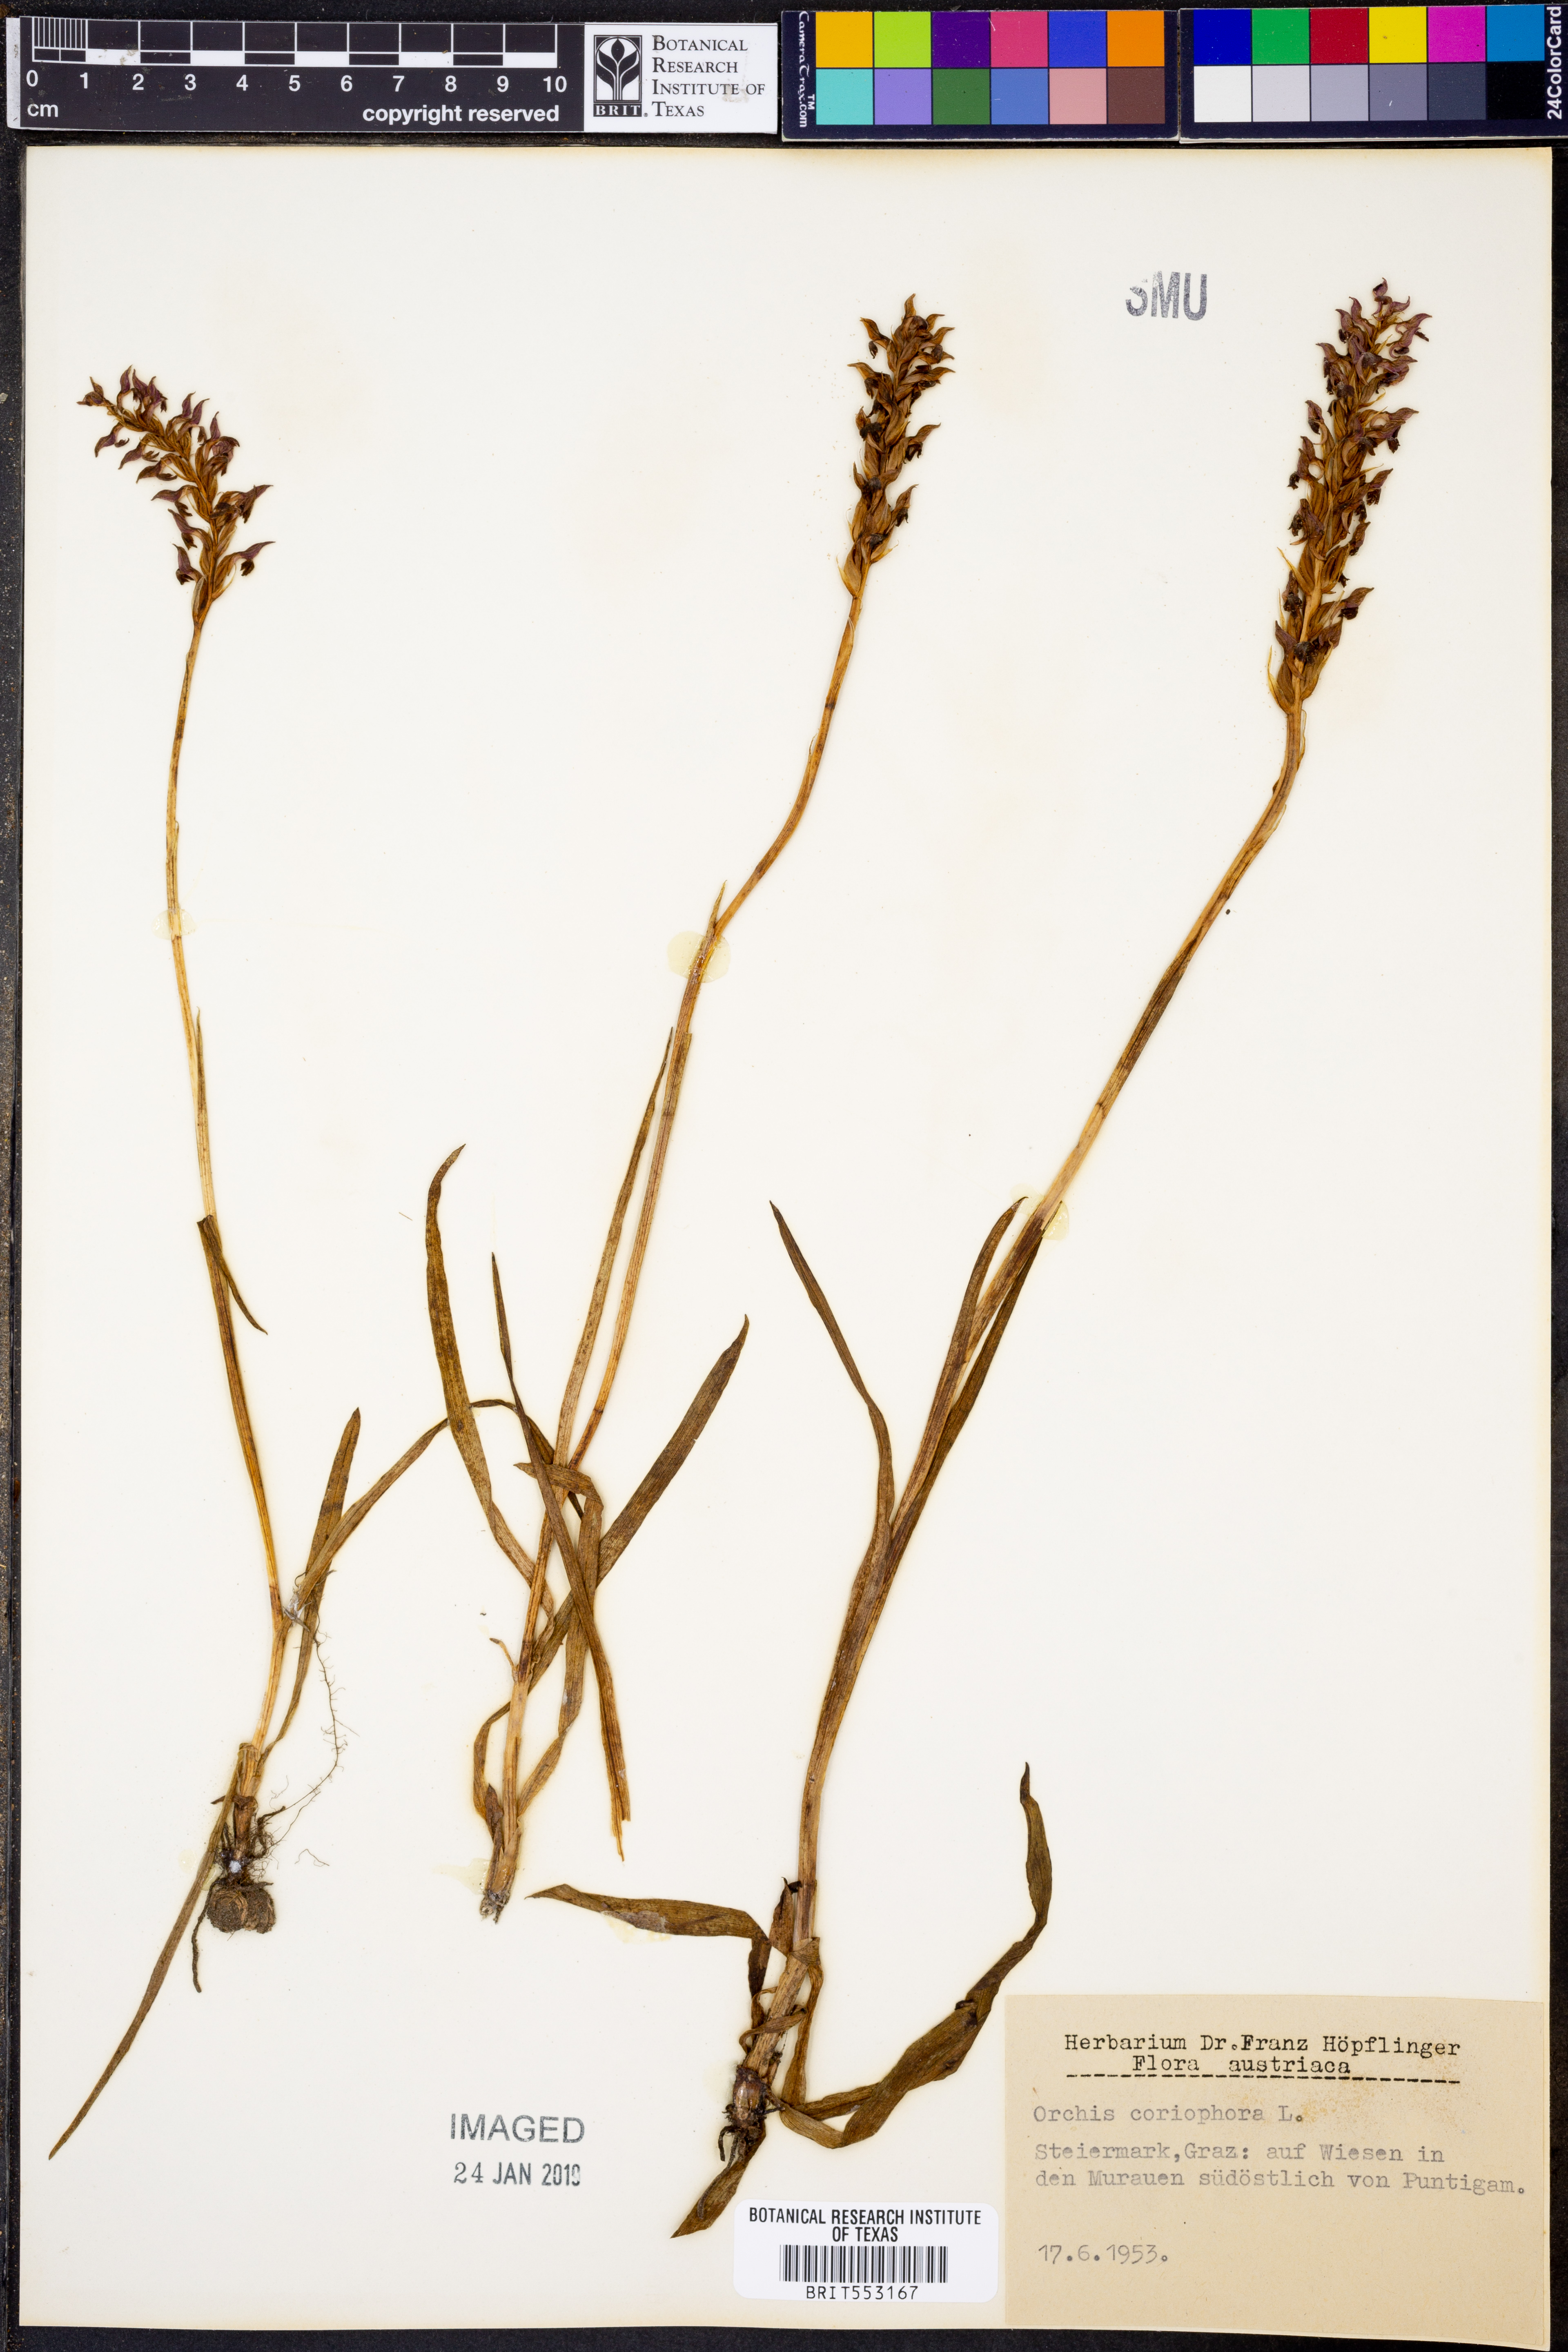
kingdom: Plantae
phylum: Tracheophyta
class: Liliopsida
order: Asparagales
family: Orchidaceae
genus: Anacamptis
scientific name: Anacamptis coriophora
